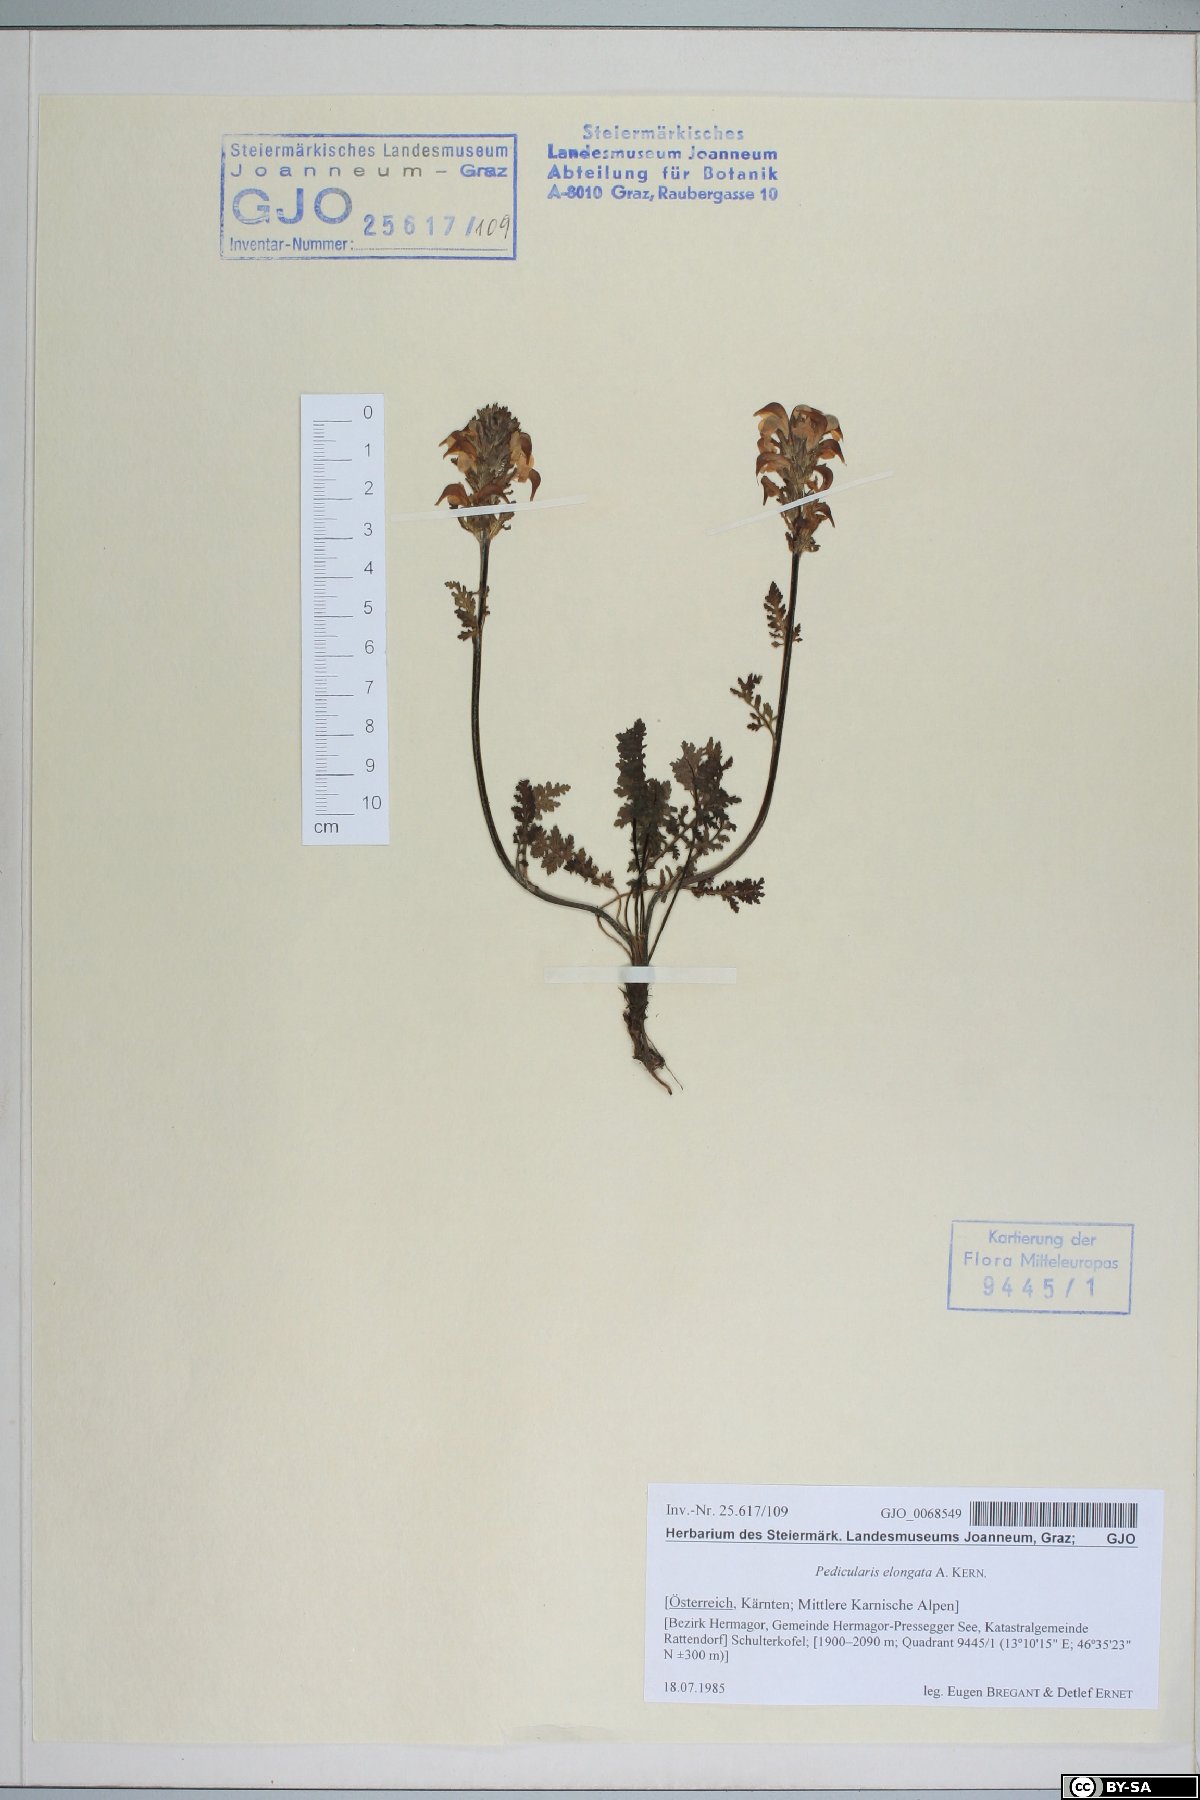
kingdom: Plantae
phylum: Tracheophyta
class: Magnoliopsida
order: Lamiales
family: Orobanchaceae
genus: Pedicularis
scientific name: Pedicularis elongata
